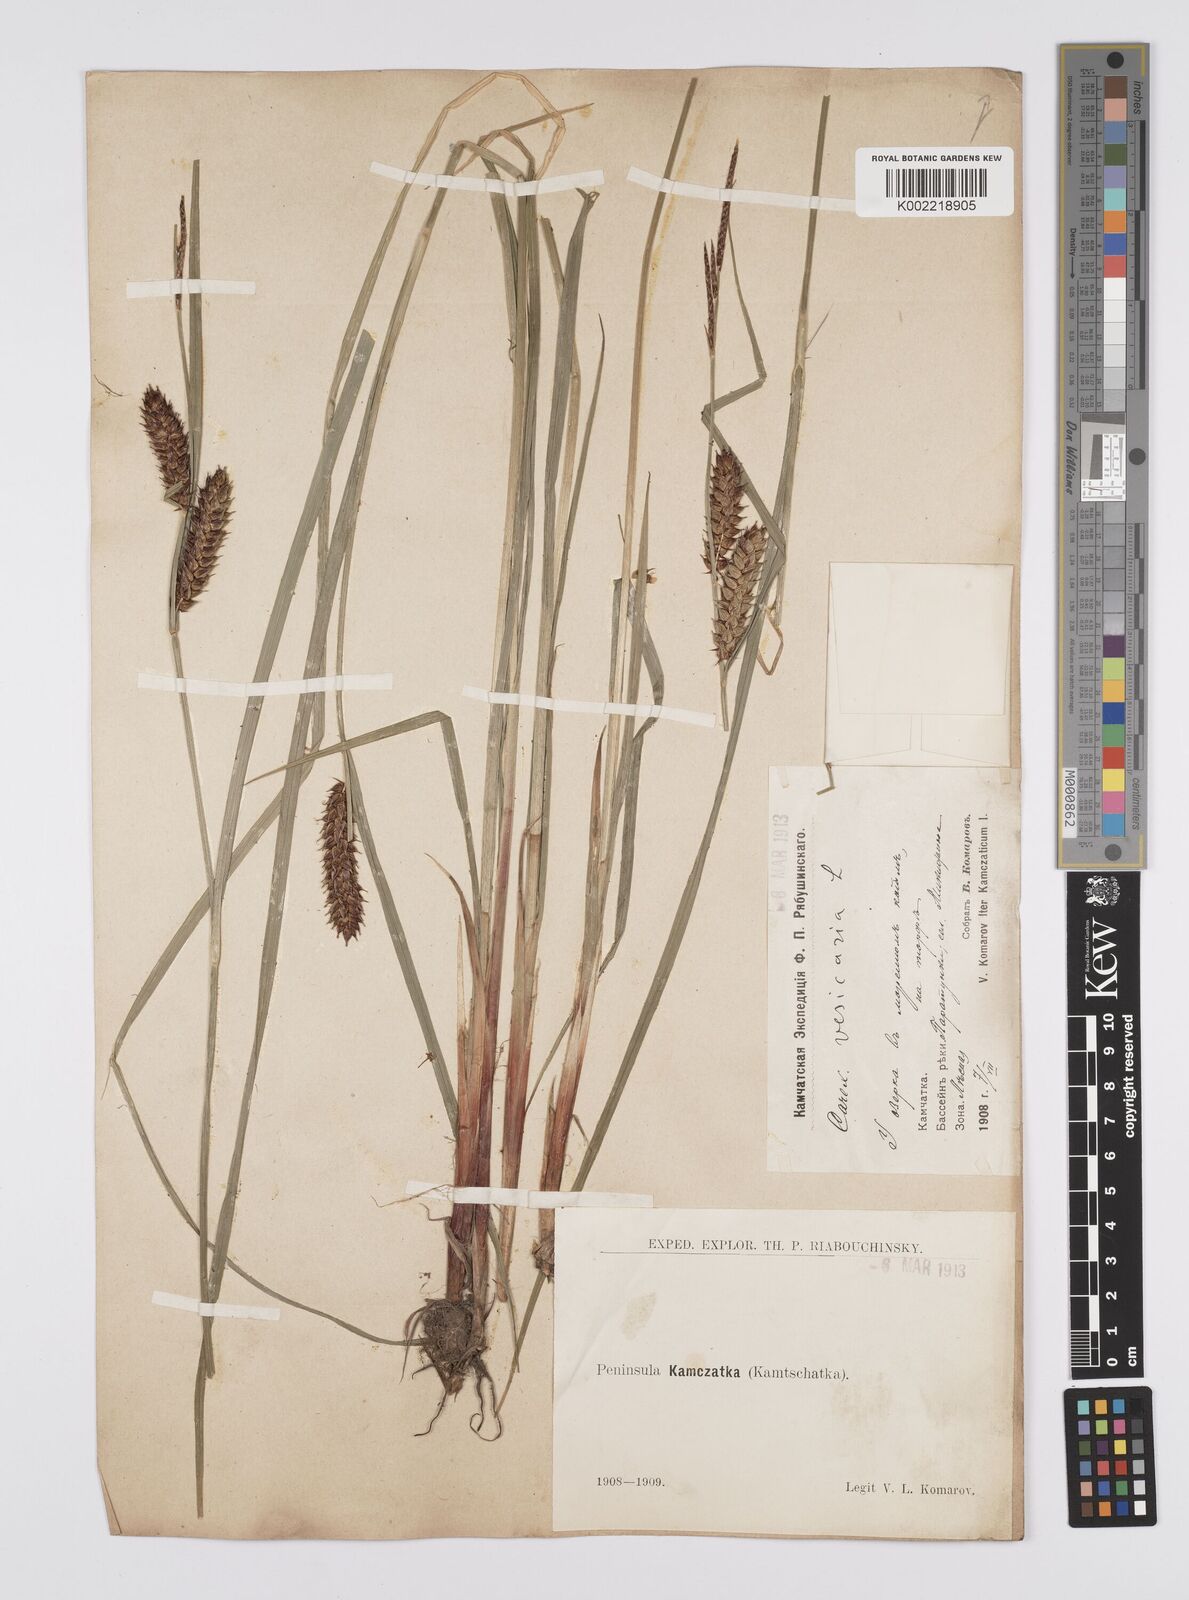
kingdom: Plantae
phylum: Tracheophyta
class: Liliopsida
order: Poales
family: Cyperaceae
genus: Carex
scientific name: Carex vesicaria
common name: Bladder-sedge
